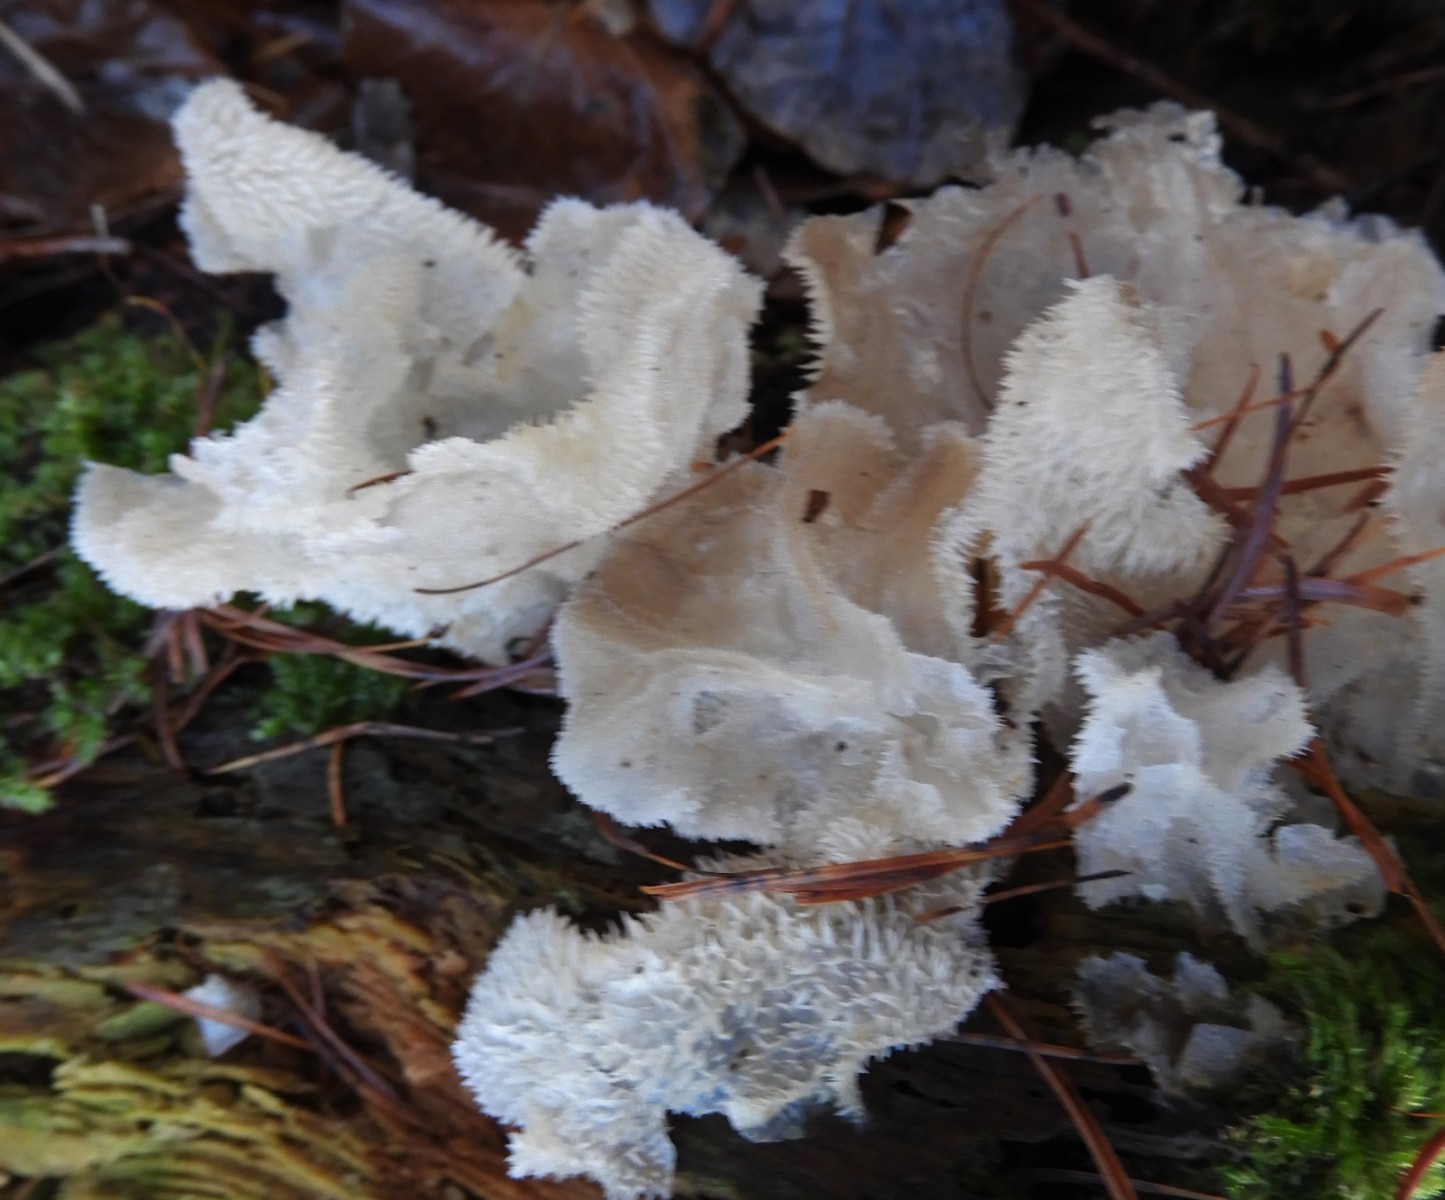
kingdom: Fungi
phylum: Basidiomycota
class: Agaricomycetes
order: Auriculariales
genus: Pseudohydnum
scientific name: Pseudohydnum gelatinosum
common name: bævretand
